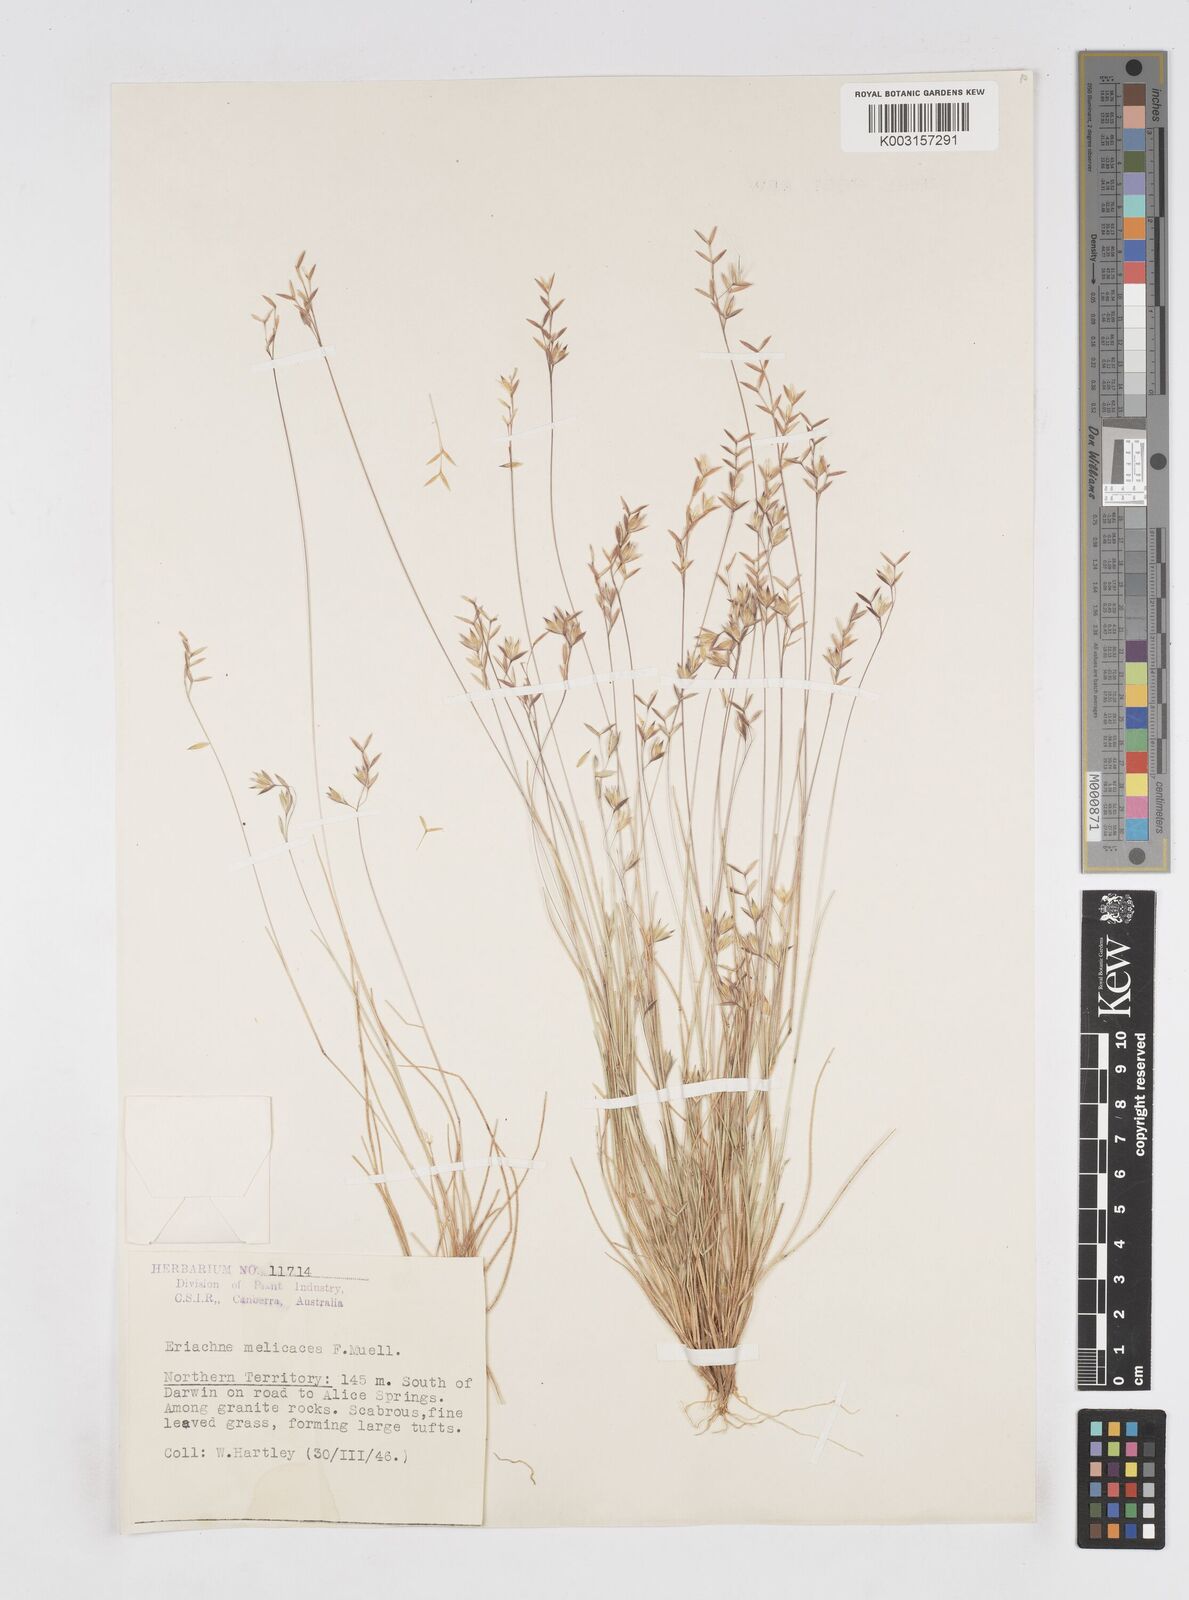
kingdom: Plantae
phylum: Tracheophyta
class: Liliopsida
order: Poales
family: Poaceae
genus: Eriachne
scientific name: Eriachne melicacea
